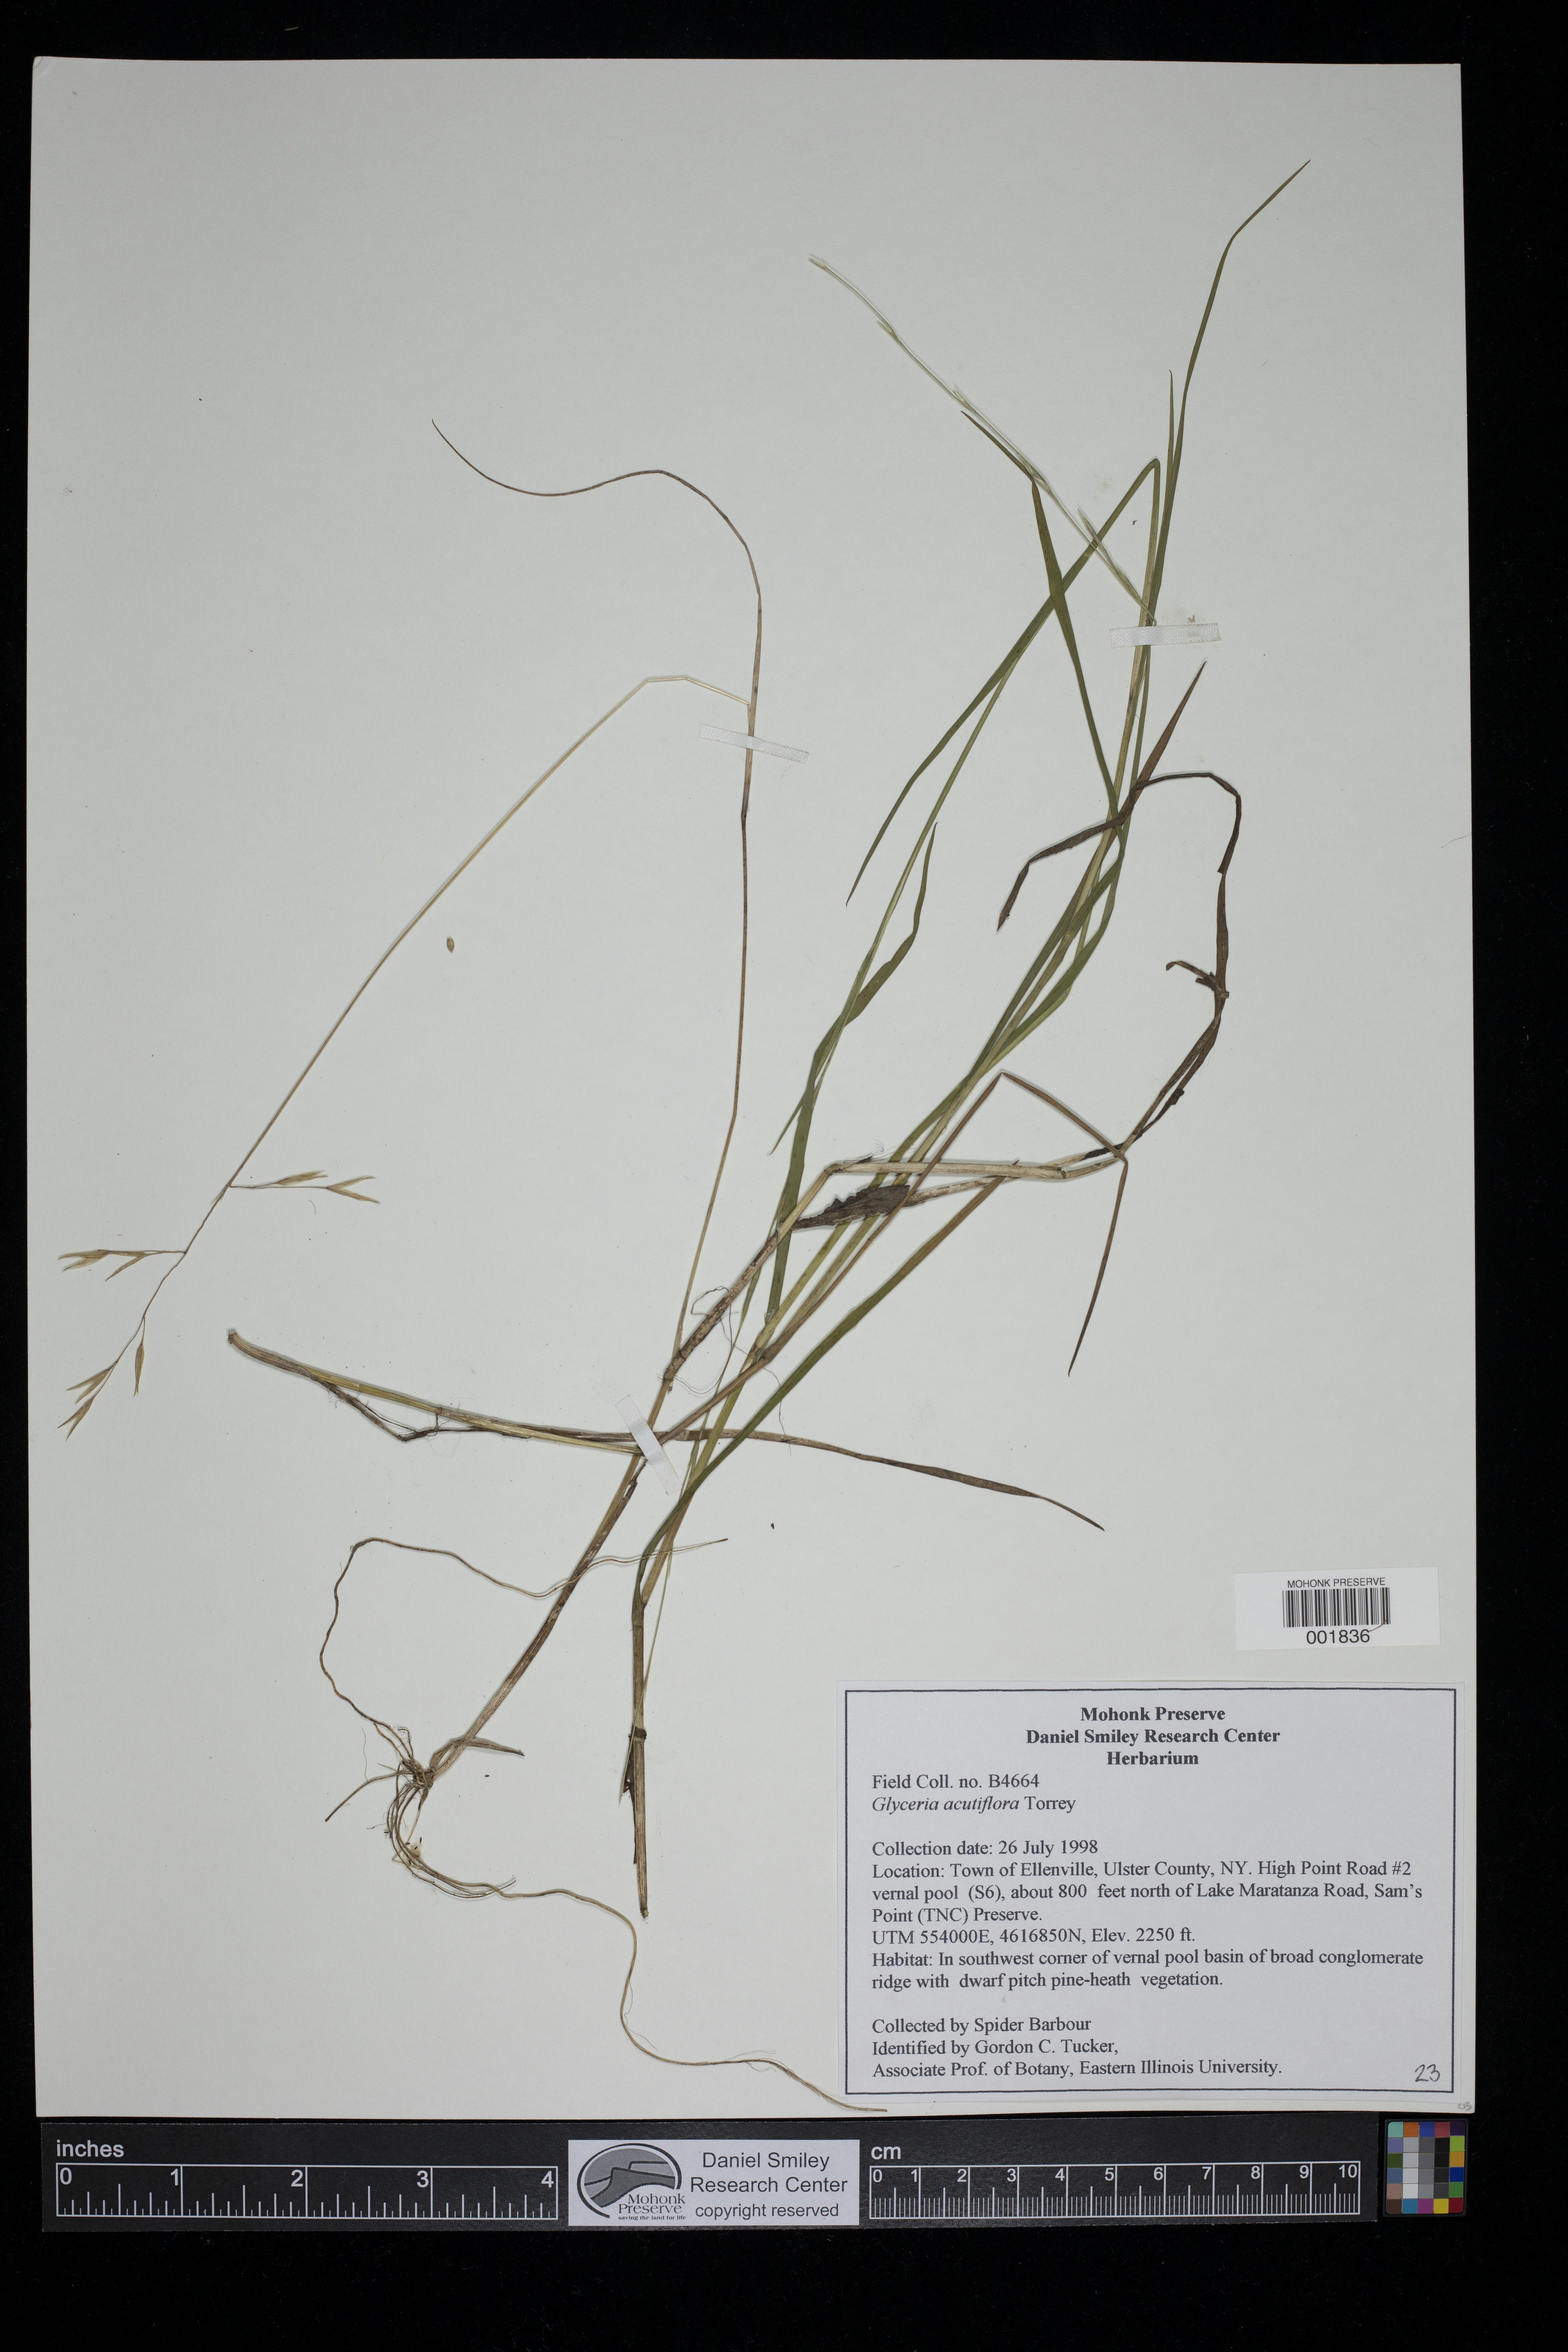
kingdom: Plantae
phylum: Tracheophyta
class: Liliopsida
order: Poales
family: Poaceae
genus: Glyceria
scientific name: Glyceria acutiflora
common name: Sharp-glumed manna-grass
